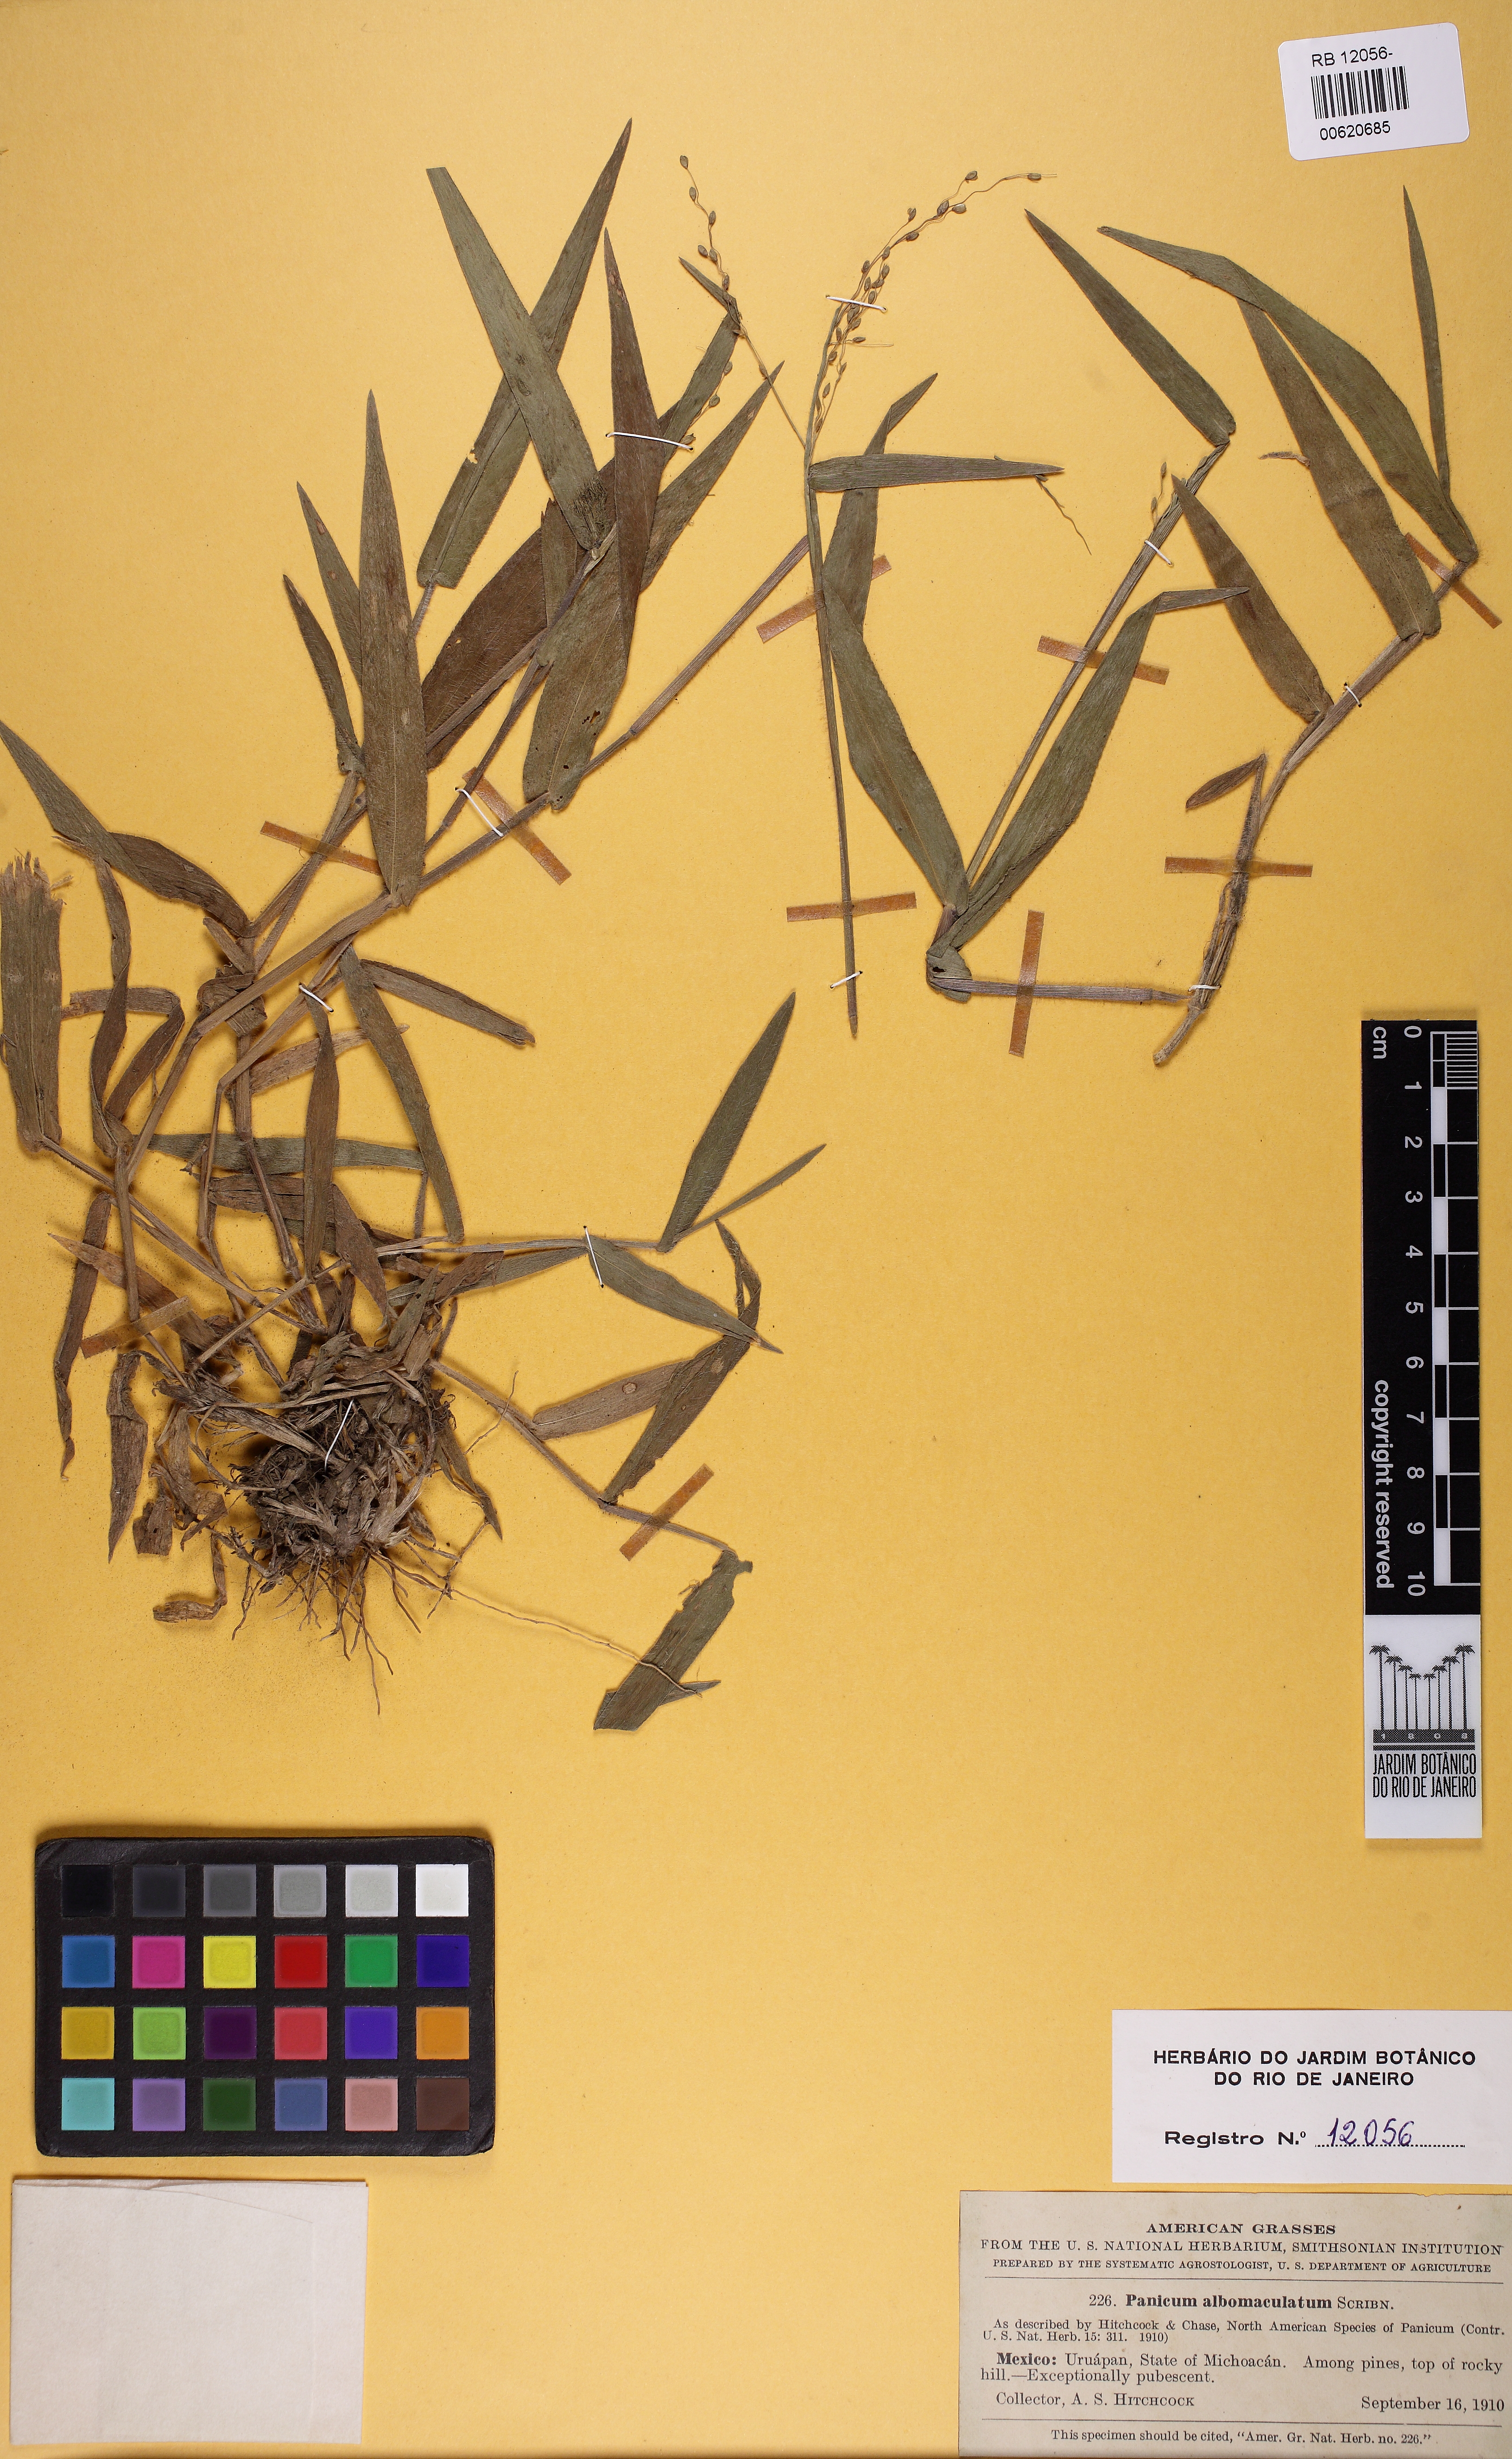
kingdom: Plantae
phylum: Tracheophyta
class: Liliopsida
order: Poales
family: Poaceae
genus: Dichanthelium
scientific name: Dichanthelium tenue
